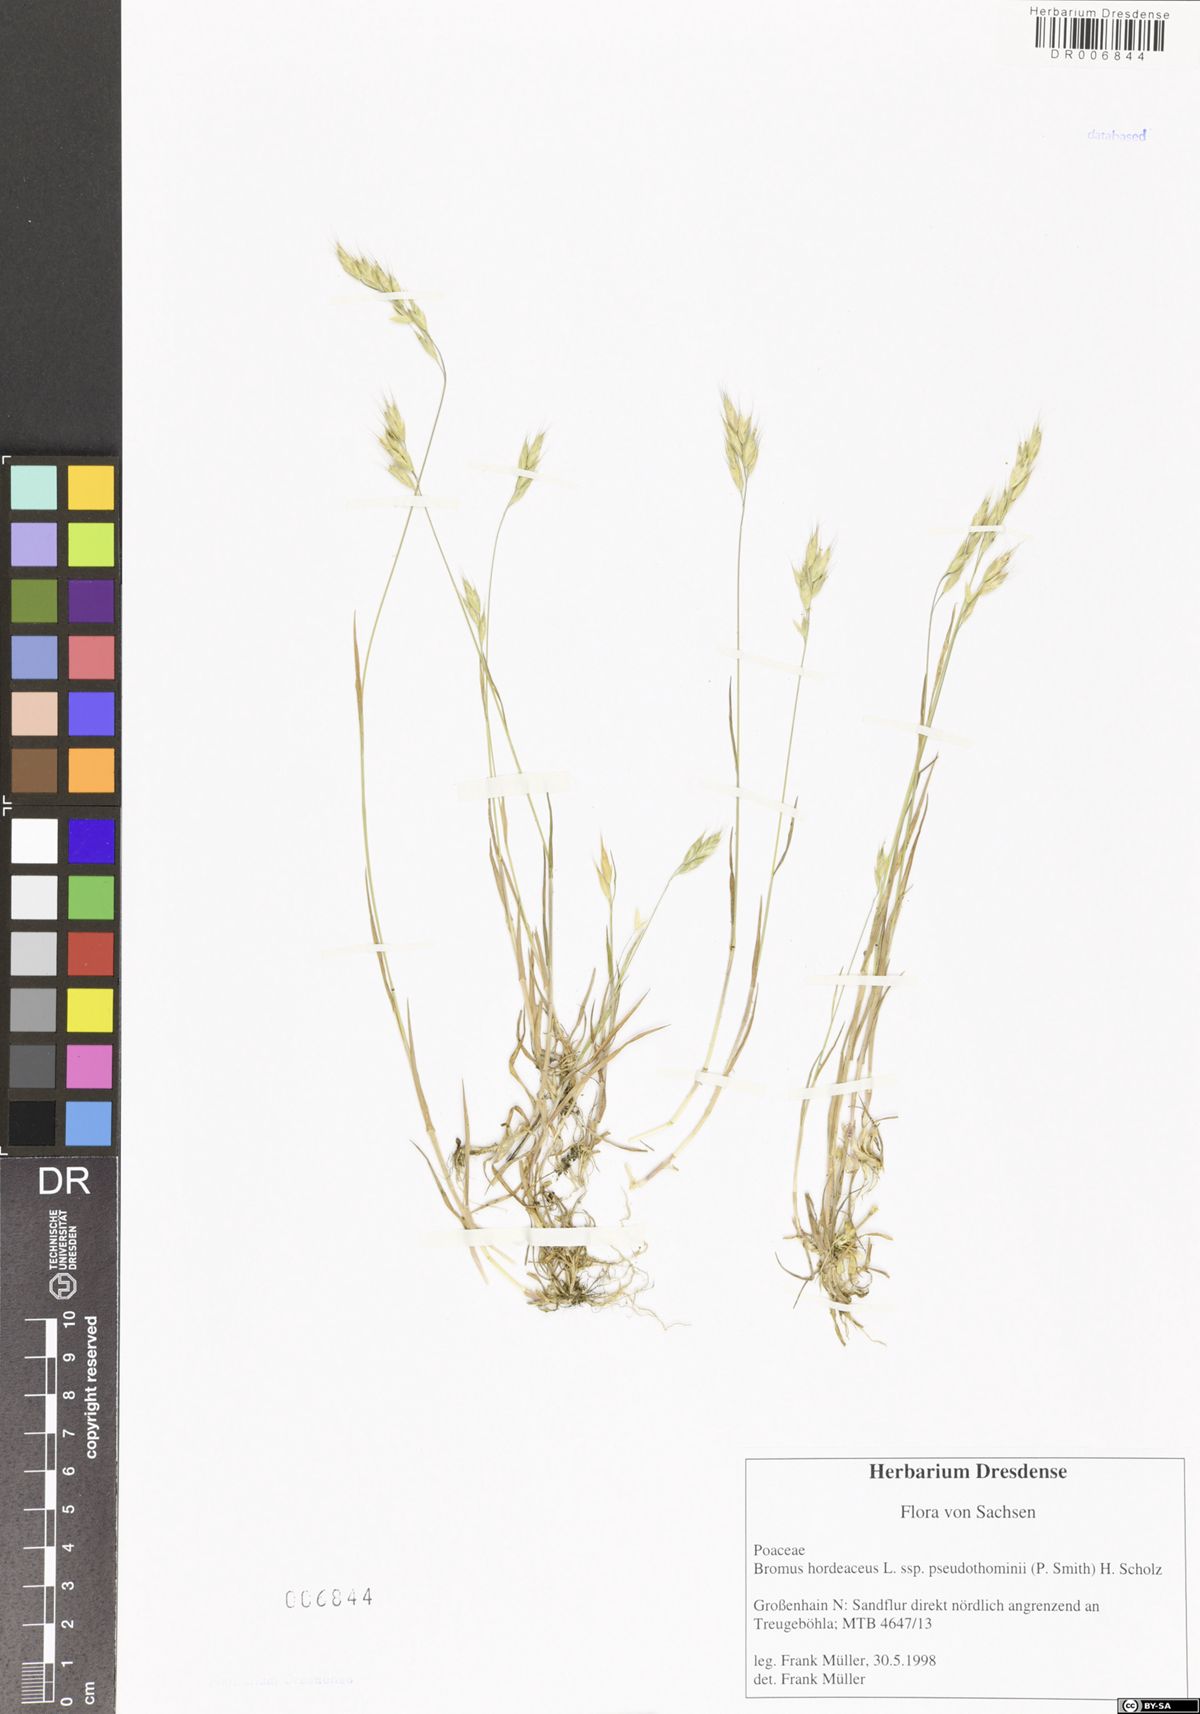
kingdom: Plantae
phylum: Tracheophyta
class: Liliopsida
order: Poales
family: Poaceae
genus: Bromus
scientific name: Bromus hordeaceus
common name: Soft brome
